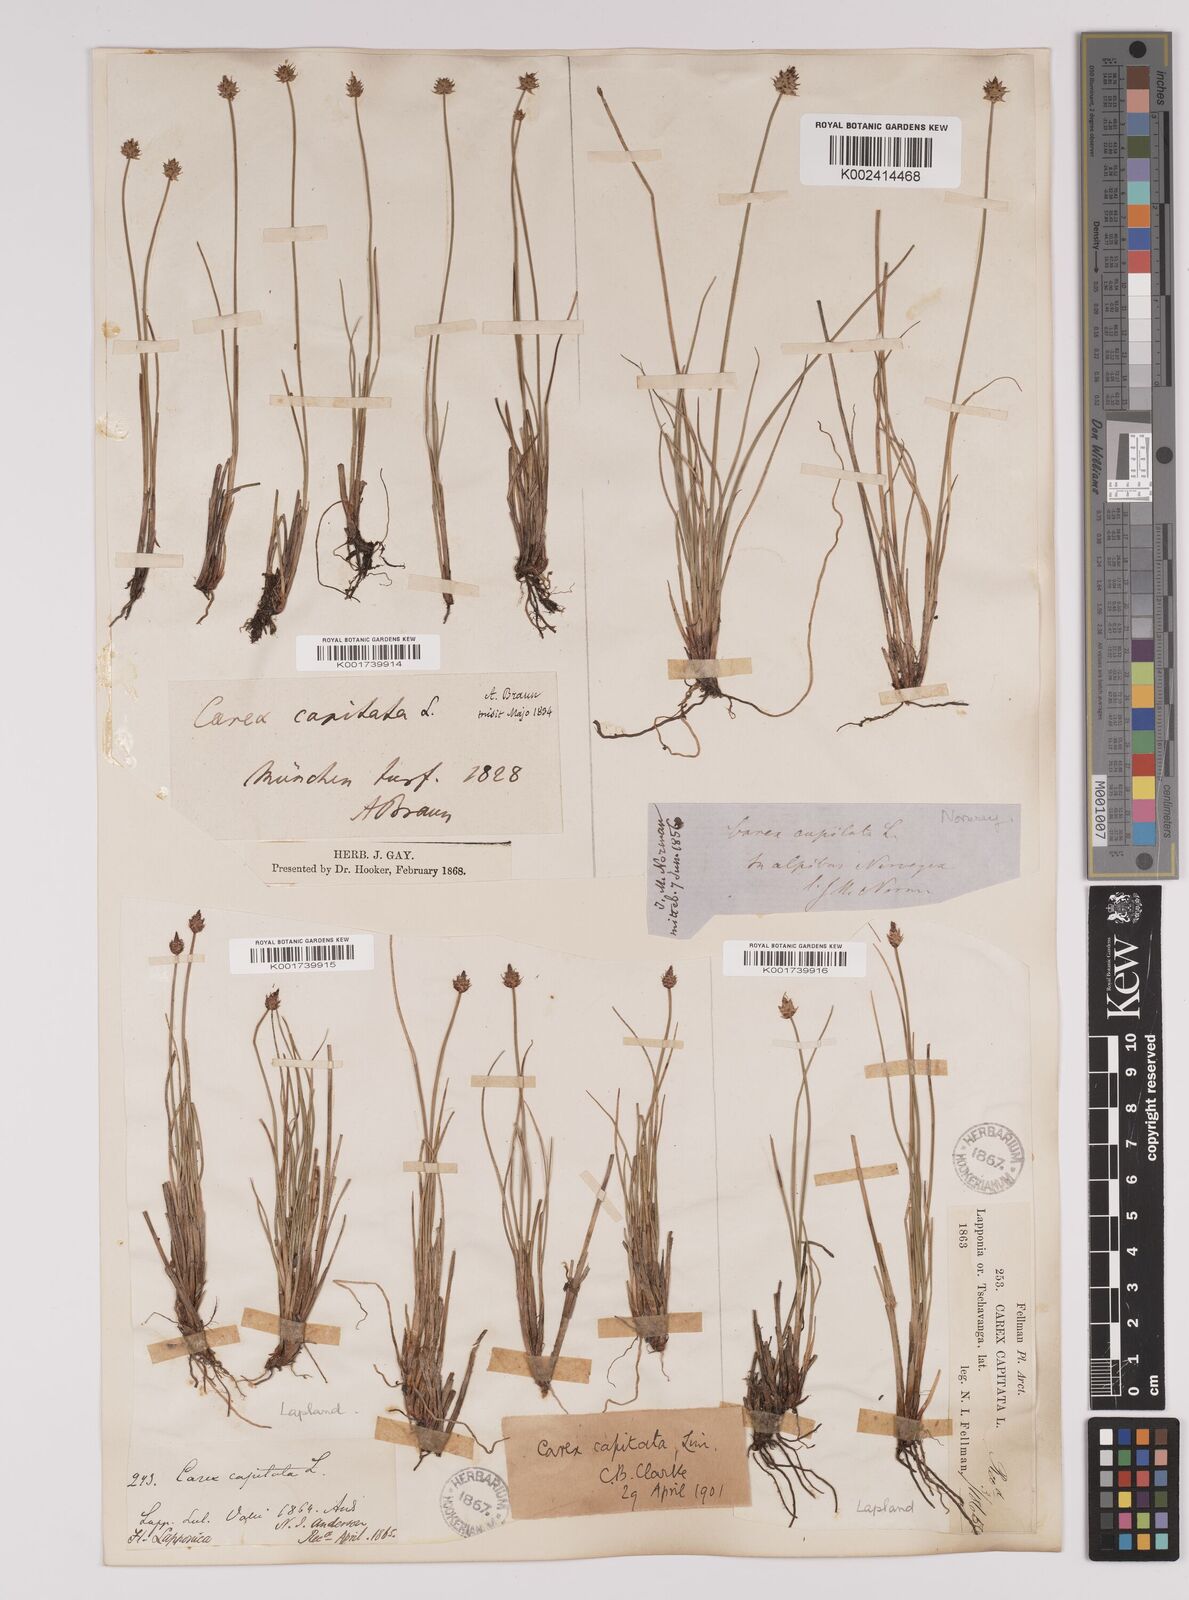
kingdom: Plantae
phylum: Tracheophyta
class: Liliopsida
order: Poales
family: Cyperaceae
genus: Carex
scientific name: Carex capitata
